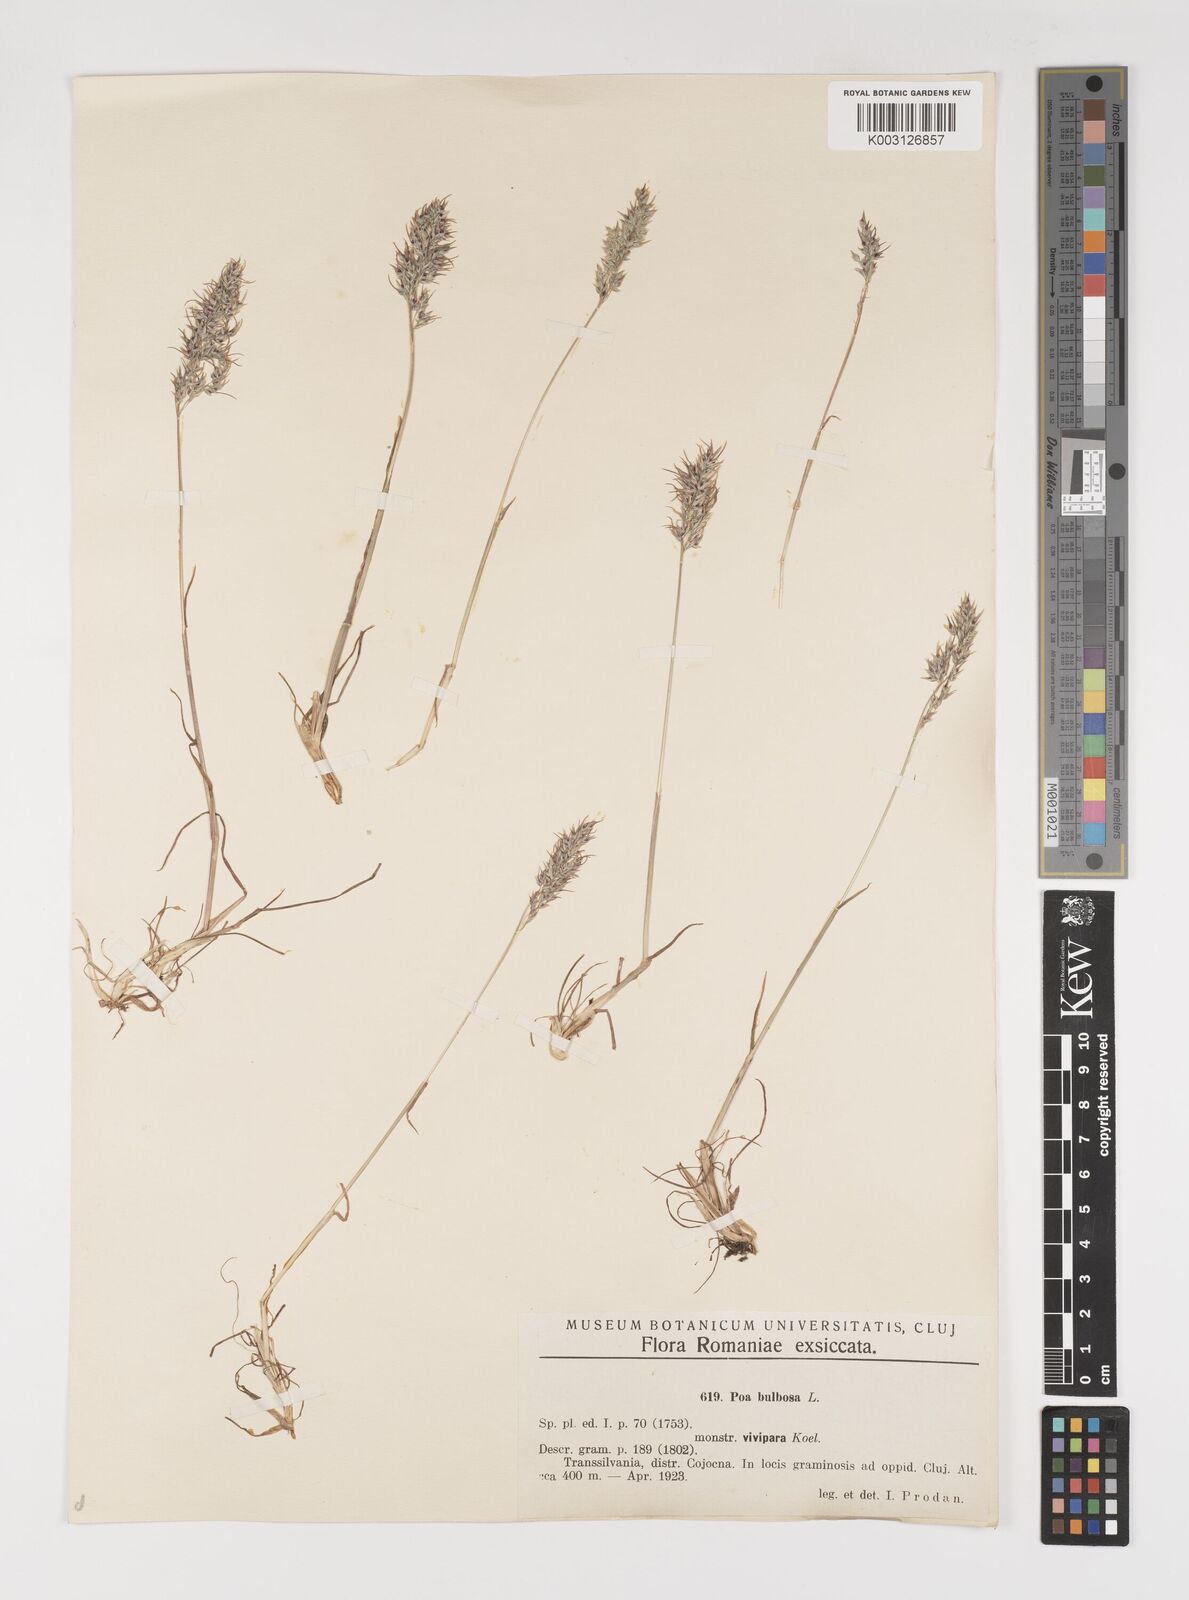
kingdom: Plantae
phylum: Tracheophyta
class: Liliopsida
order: Poales
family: Poaceae
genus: Poa
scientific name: Poa bulbosa
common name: Bulbous bluegrass
